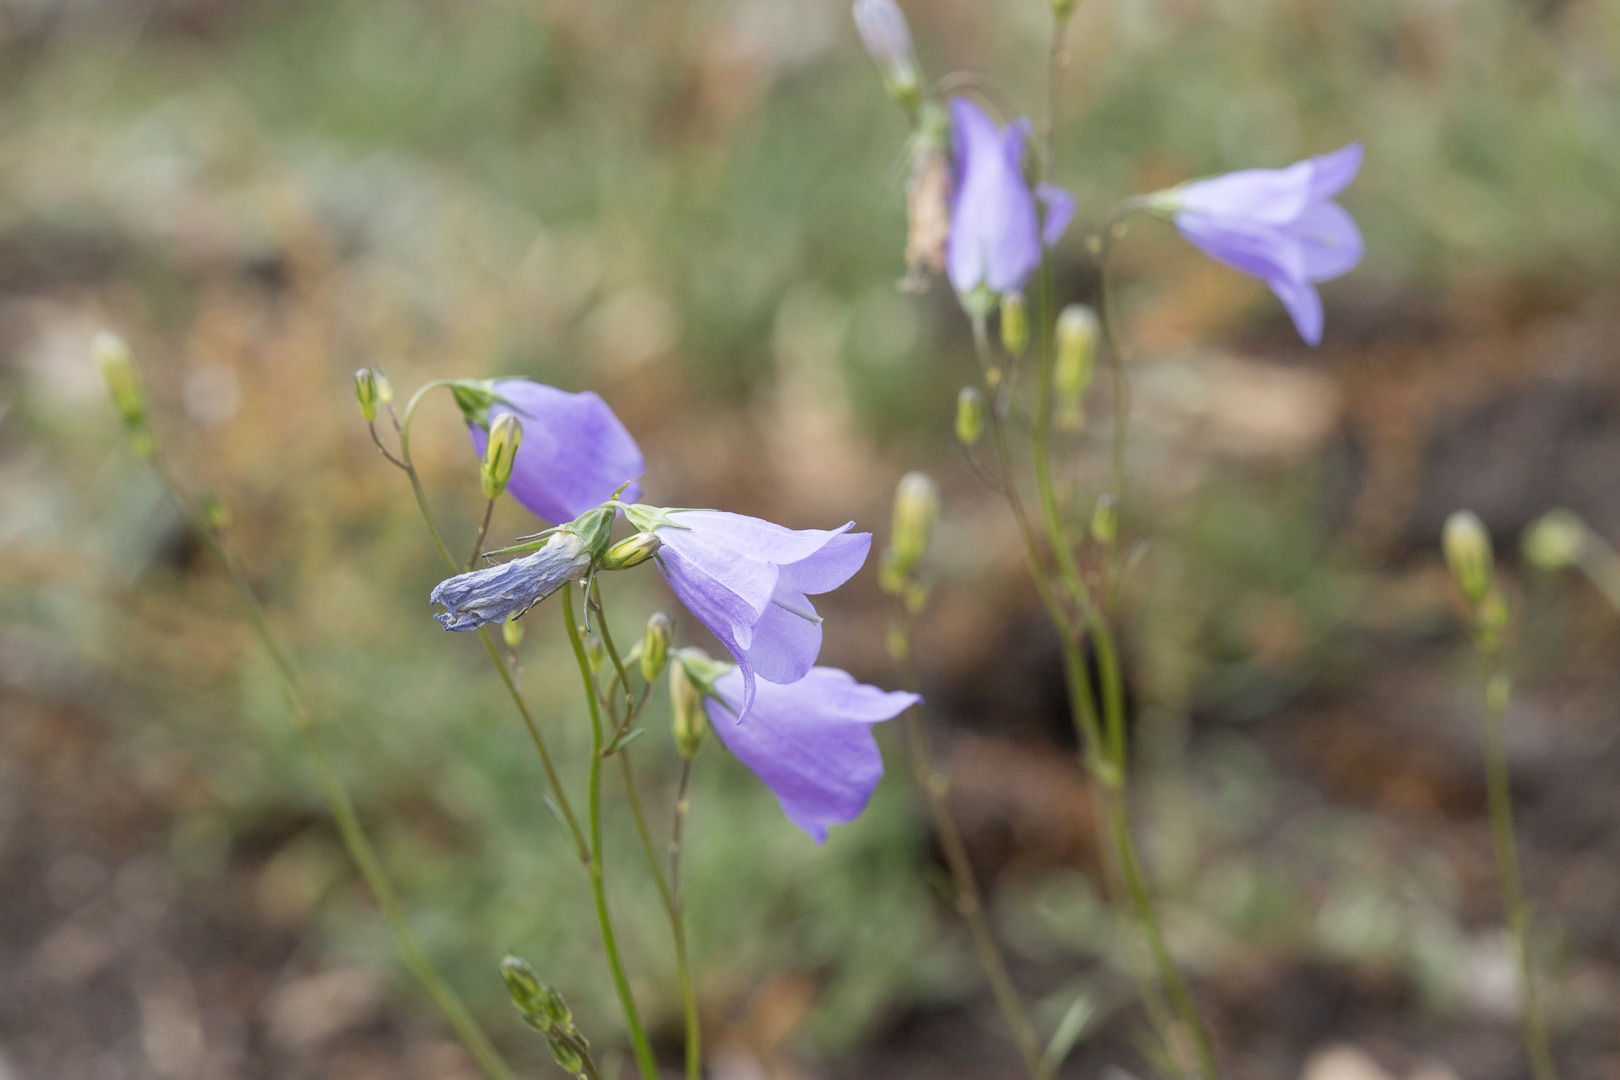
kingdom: Plantae
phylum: Tracheophyta
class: Magnoliopsida
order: Asterales
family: Campanulaceae
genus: Campanula
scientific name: Campanula rotundifolia
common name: Liden klokke
